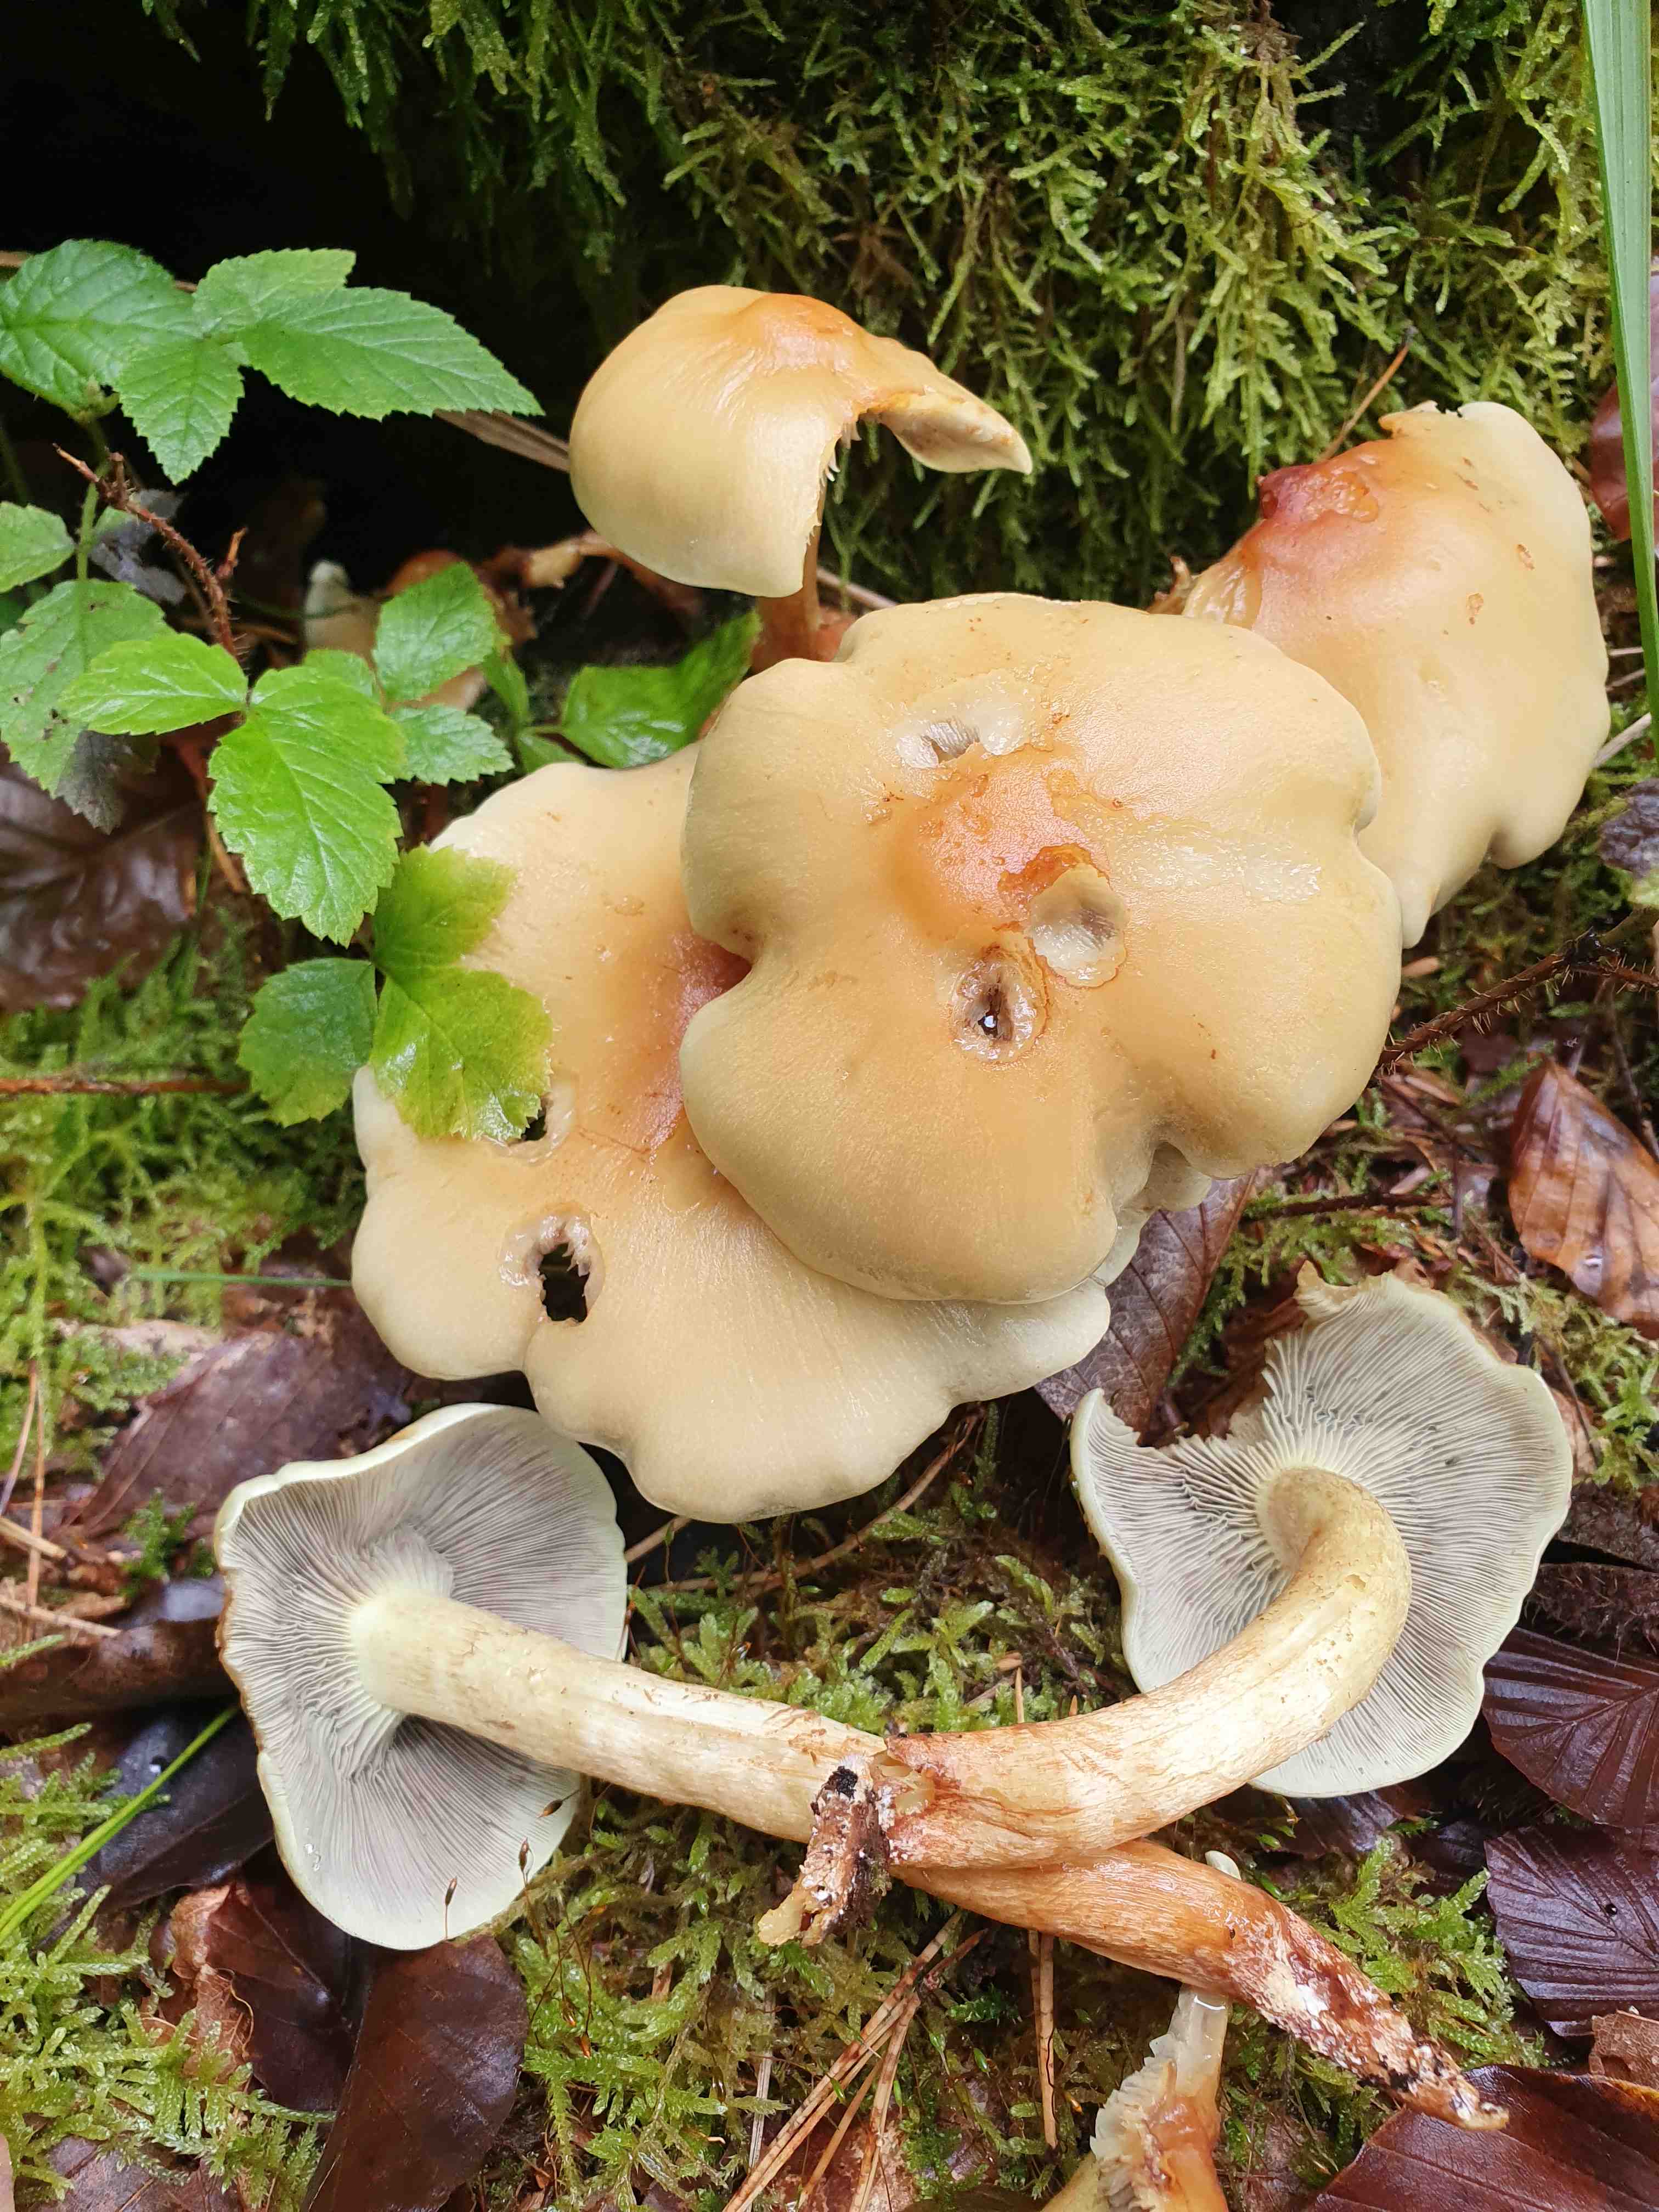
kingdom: Fungi
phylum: Basidiomycota
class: Agaricomycetes
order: Agaricales
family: Strophariaceae
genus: Hypholoma
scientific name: Hypholoma fasciculare
